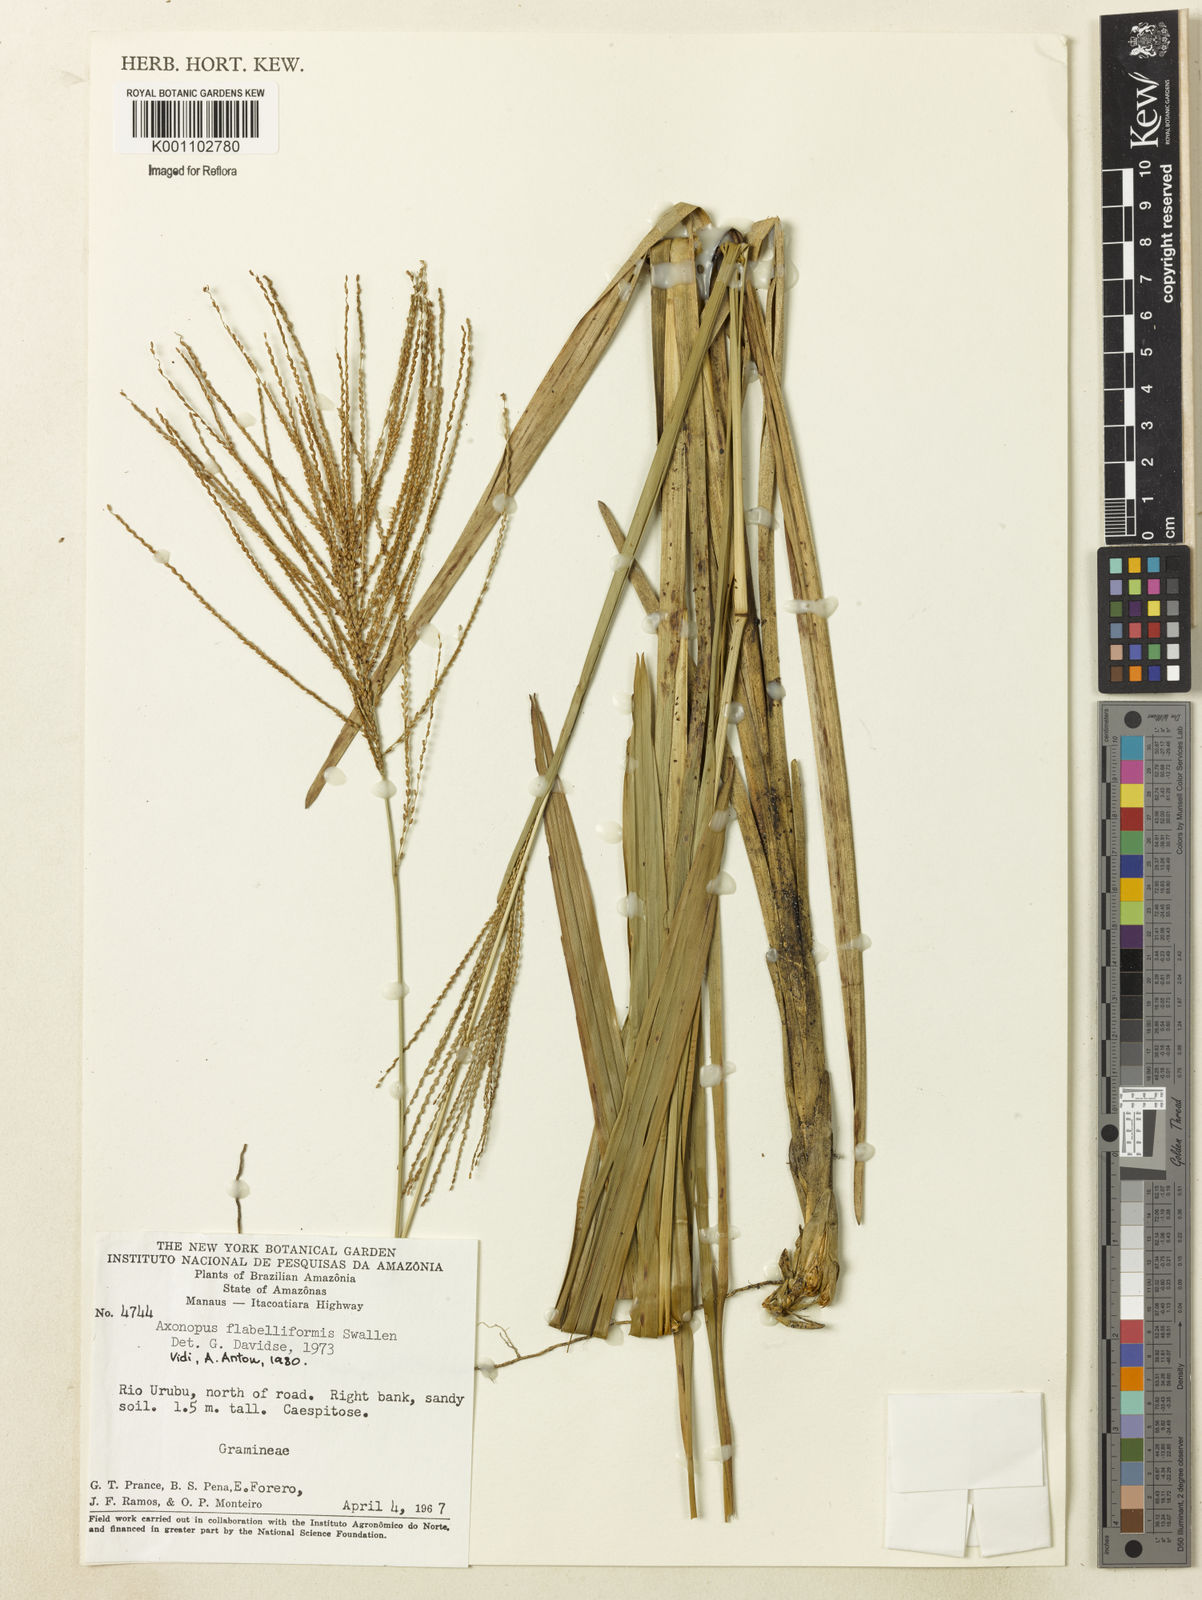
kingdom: Plantae
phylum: Tracheophyta
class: Liliopsida
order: Poales
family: Poaceae
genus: Axonopus
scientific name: Axonopus flabelliformis
